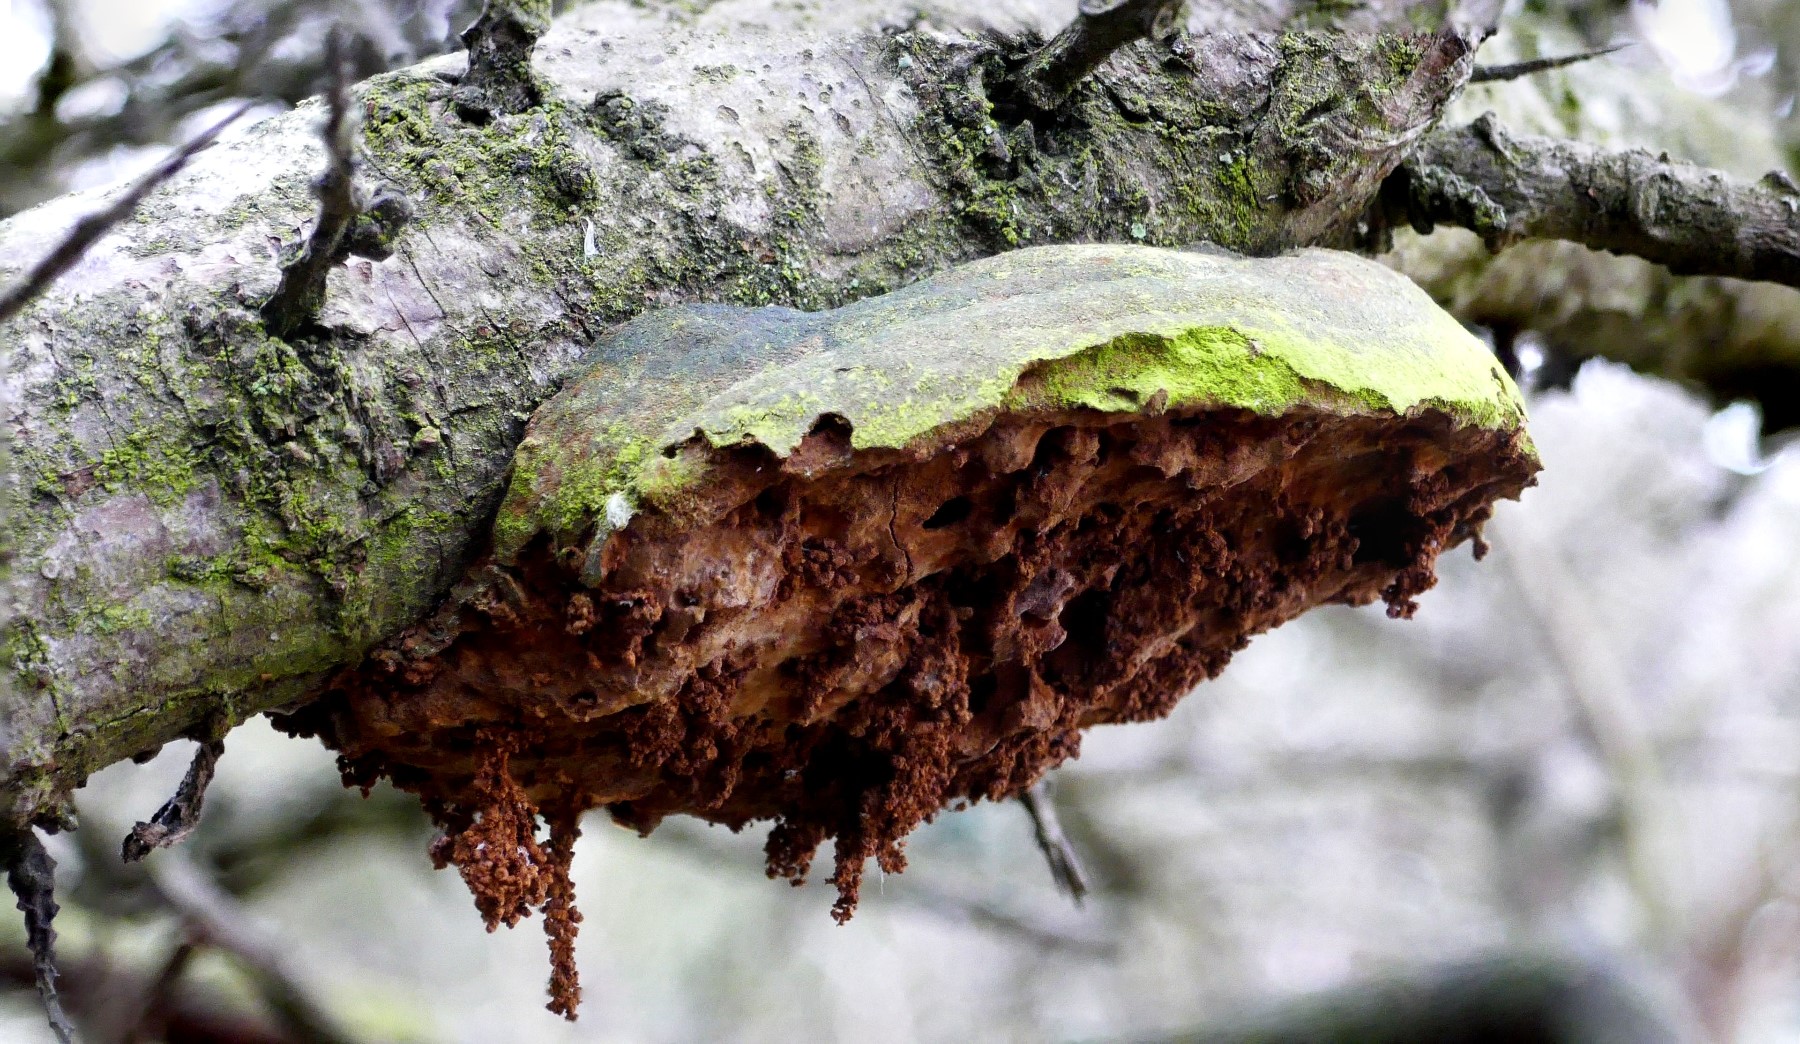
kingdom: Fungi
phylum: Basidiomycota
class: Agaricomycetes
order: Hymenochaetales
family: Hymenochaetaceae
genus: Fomitiporia
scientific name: Fomitiporia hippophaeicola
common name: havtorn-ildporesvamp
